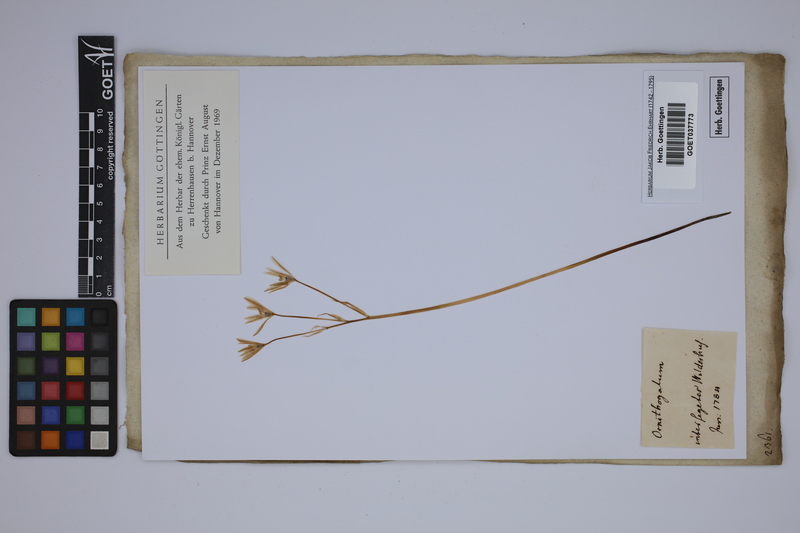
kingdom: Plantae
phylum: Tracheophyta
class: Liliopsida
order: Asparagales
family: Asparagaceae
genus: Ornithogalum
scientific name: Ornithogalum
